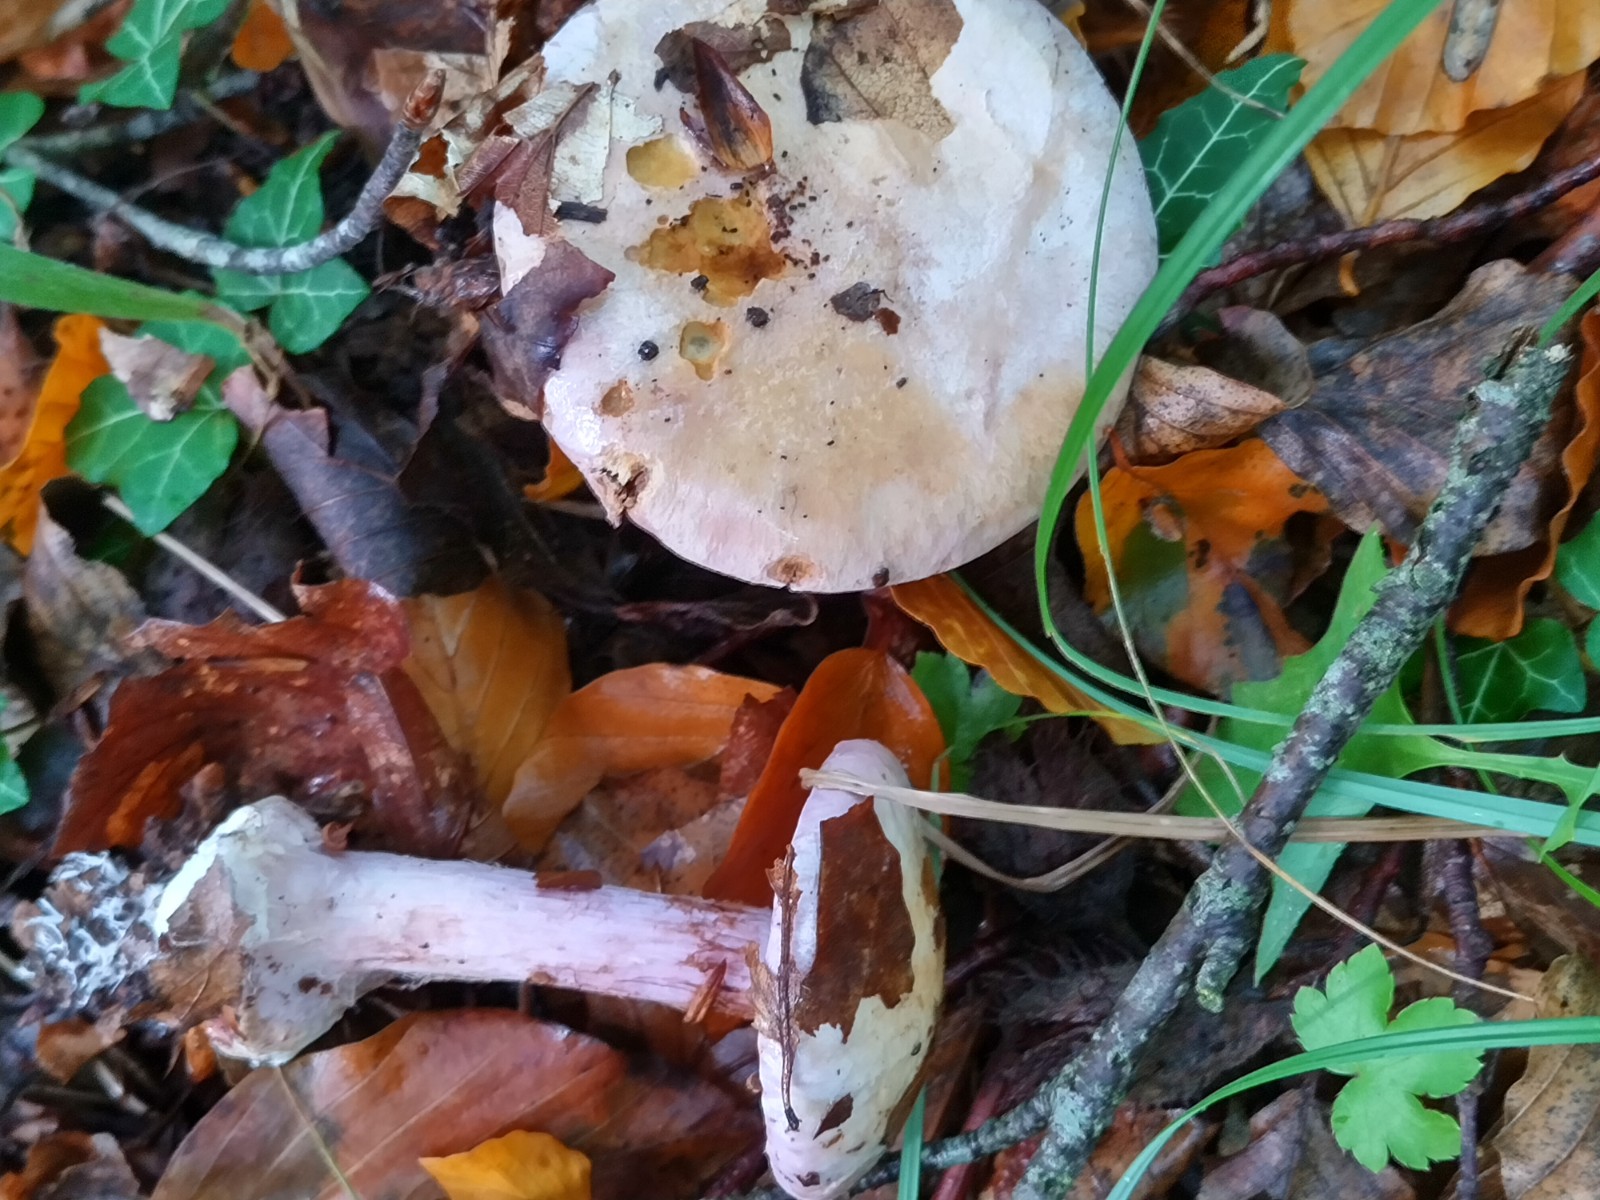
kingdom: Fungi
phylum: Basidiomycota
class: Agaricomycetes
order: Agaricales
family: Cortinariaceae
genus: Calonarius
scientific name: Calonarius suaveolens
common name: sødtduftende slørhat
